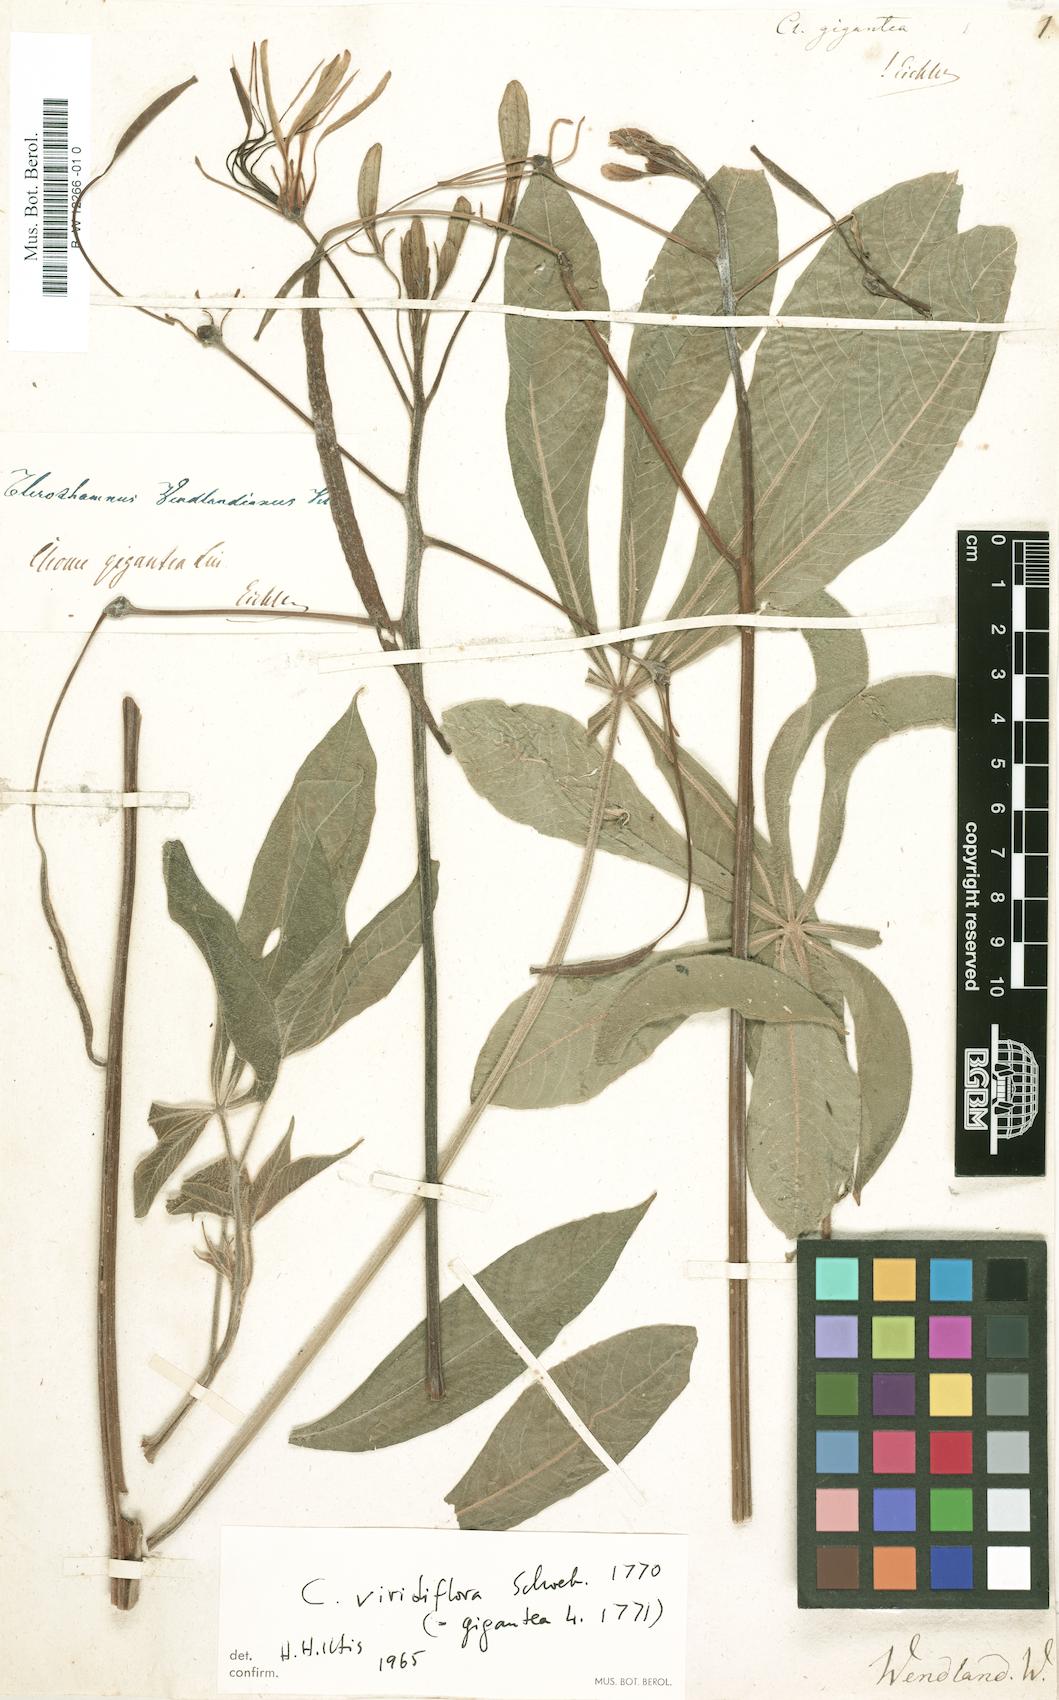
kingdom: Plantae
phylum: Tracheophyta
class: Magnoliopsida
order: Brassicales
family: Cleomaceae
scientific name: Cleomaceae
